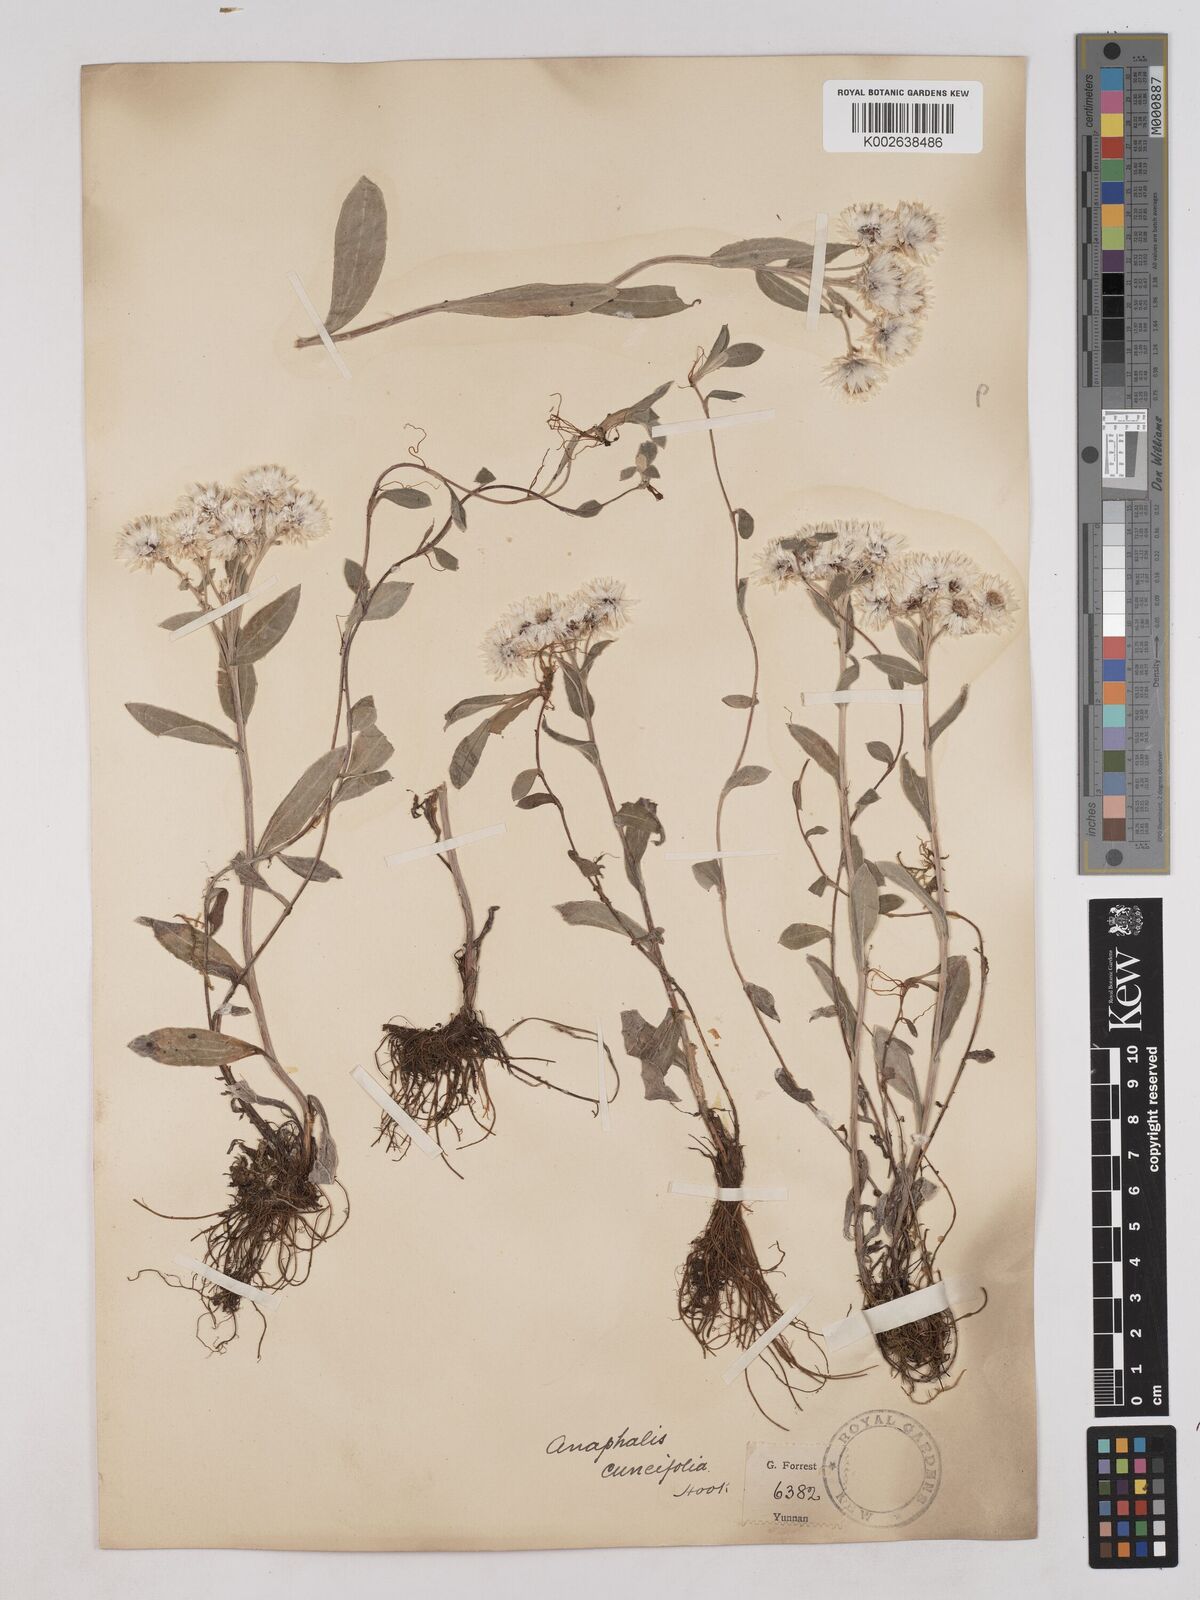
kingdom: Plantae
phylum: Tracheophyta
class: Magnoliopsida
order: Asterales
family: Asteraceae
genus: Anaphalis
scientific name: Anaphalis nepalensis
